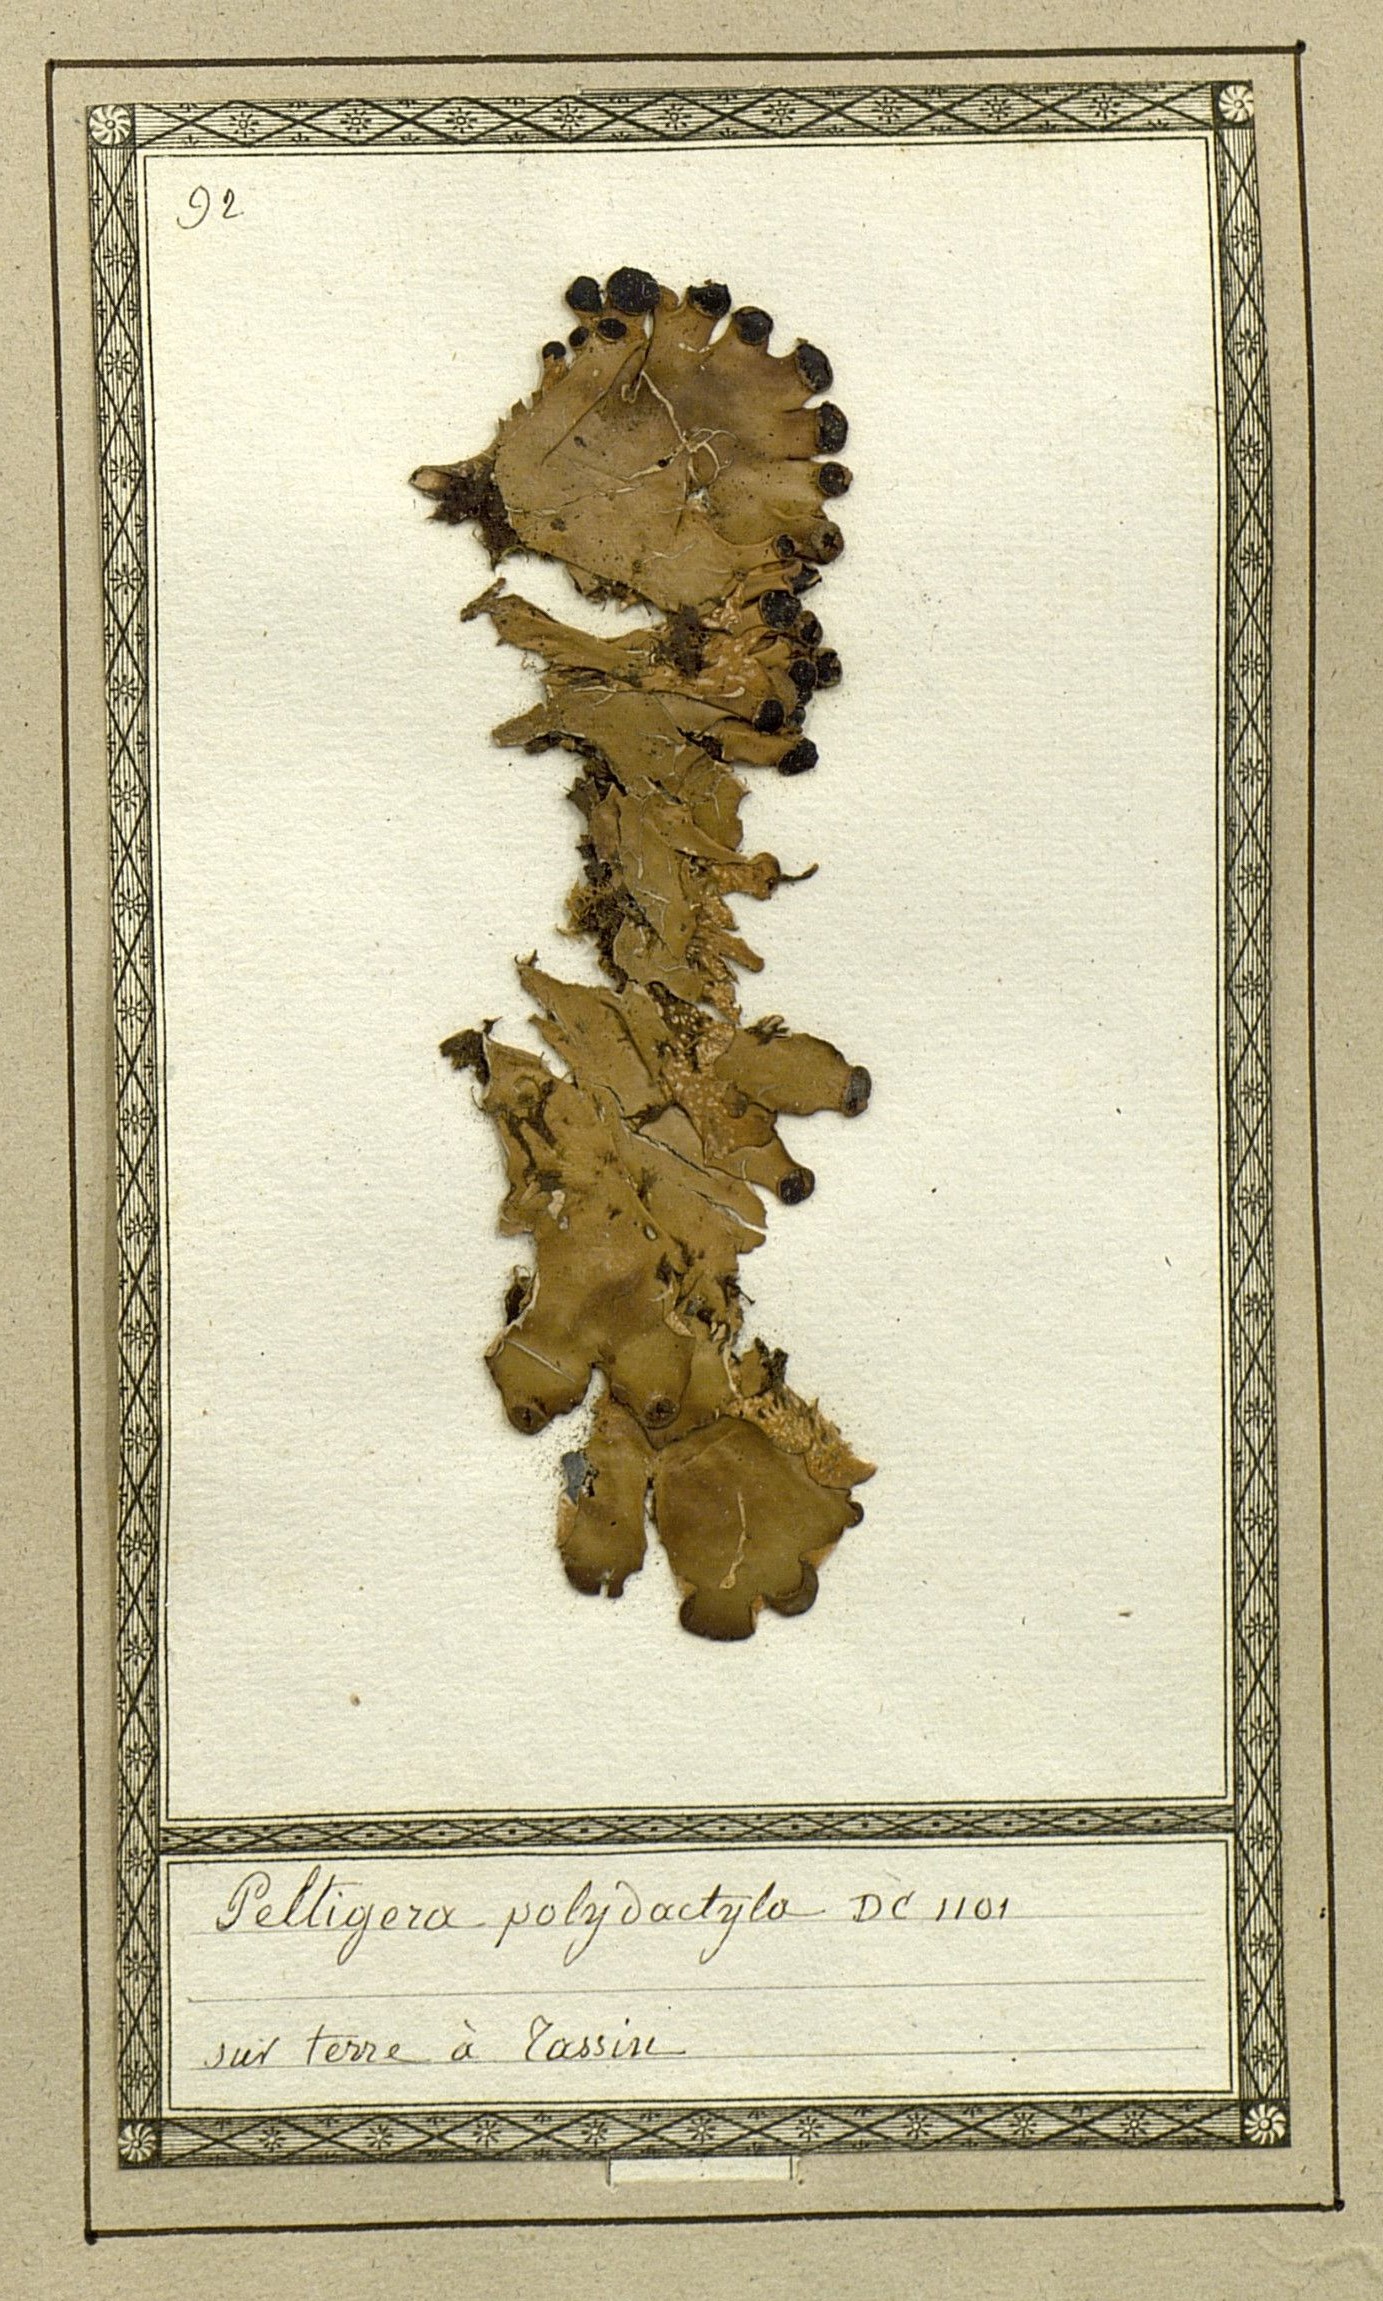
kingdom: Fungi
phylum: Ascomycota
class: Lecanoromycetes
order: Peltigerales
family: Peltigeraceae
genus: Peltigera
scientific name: Peltigera polydactylon
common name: Many-fruited pelt lichen
